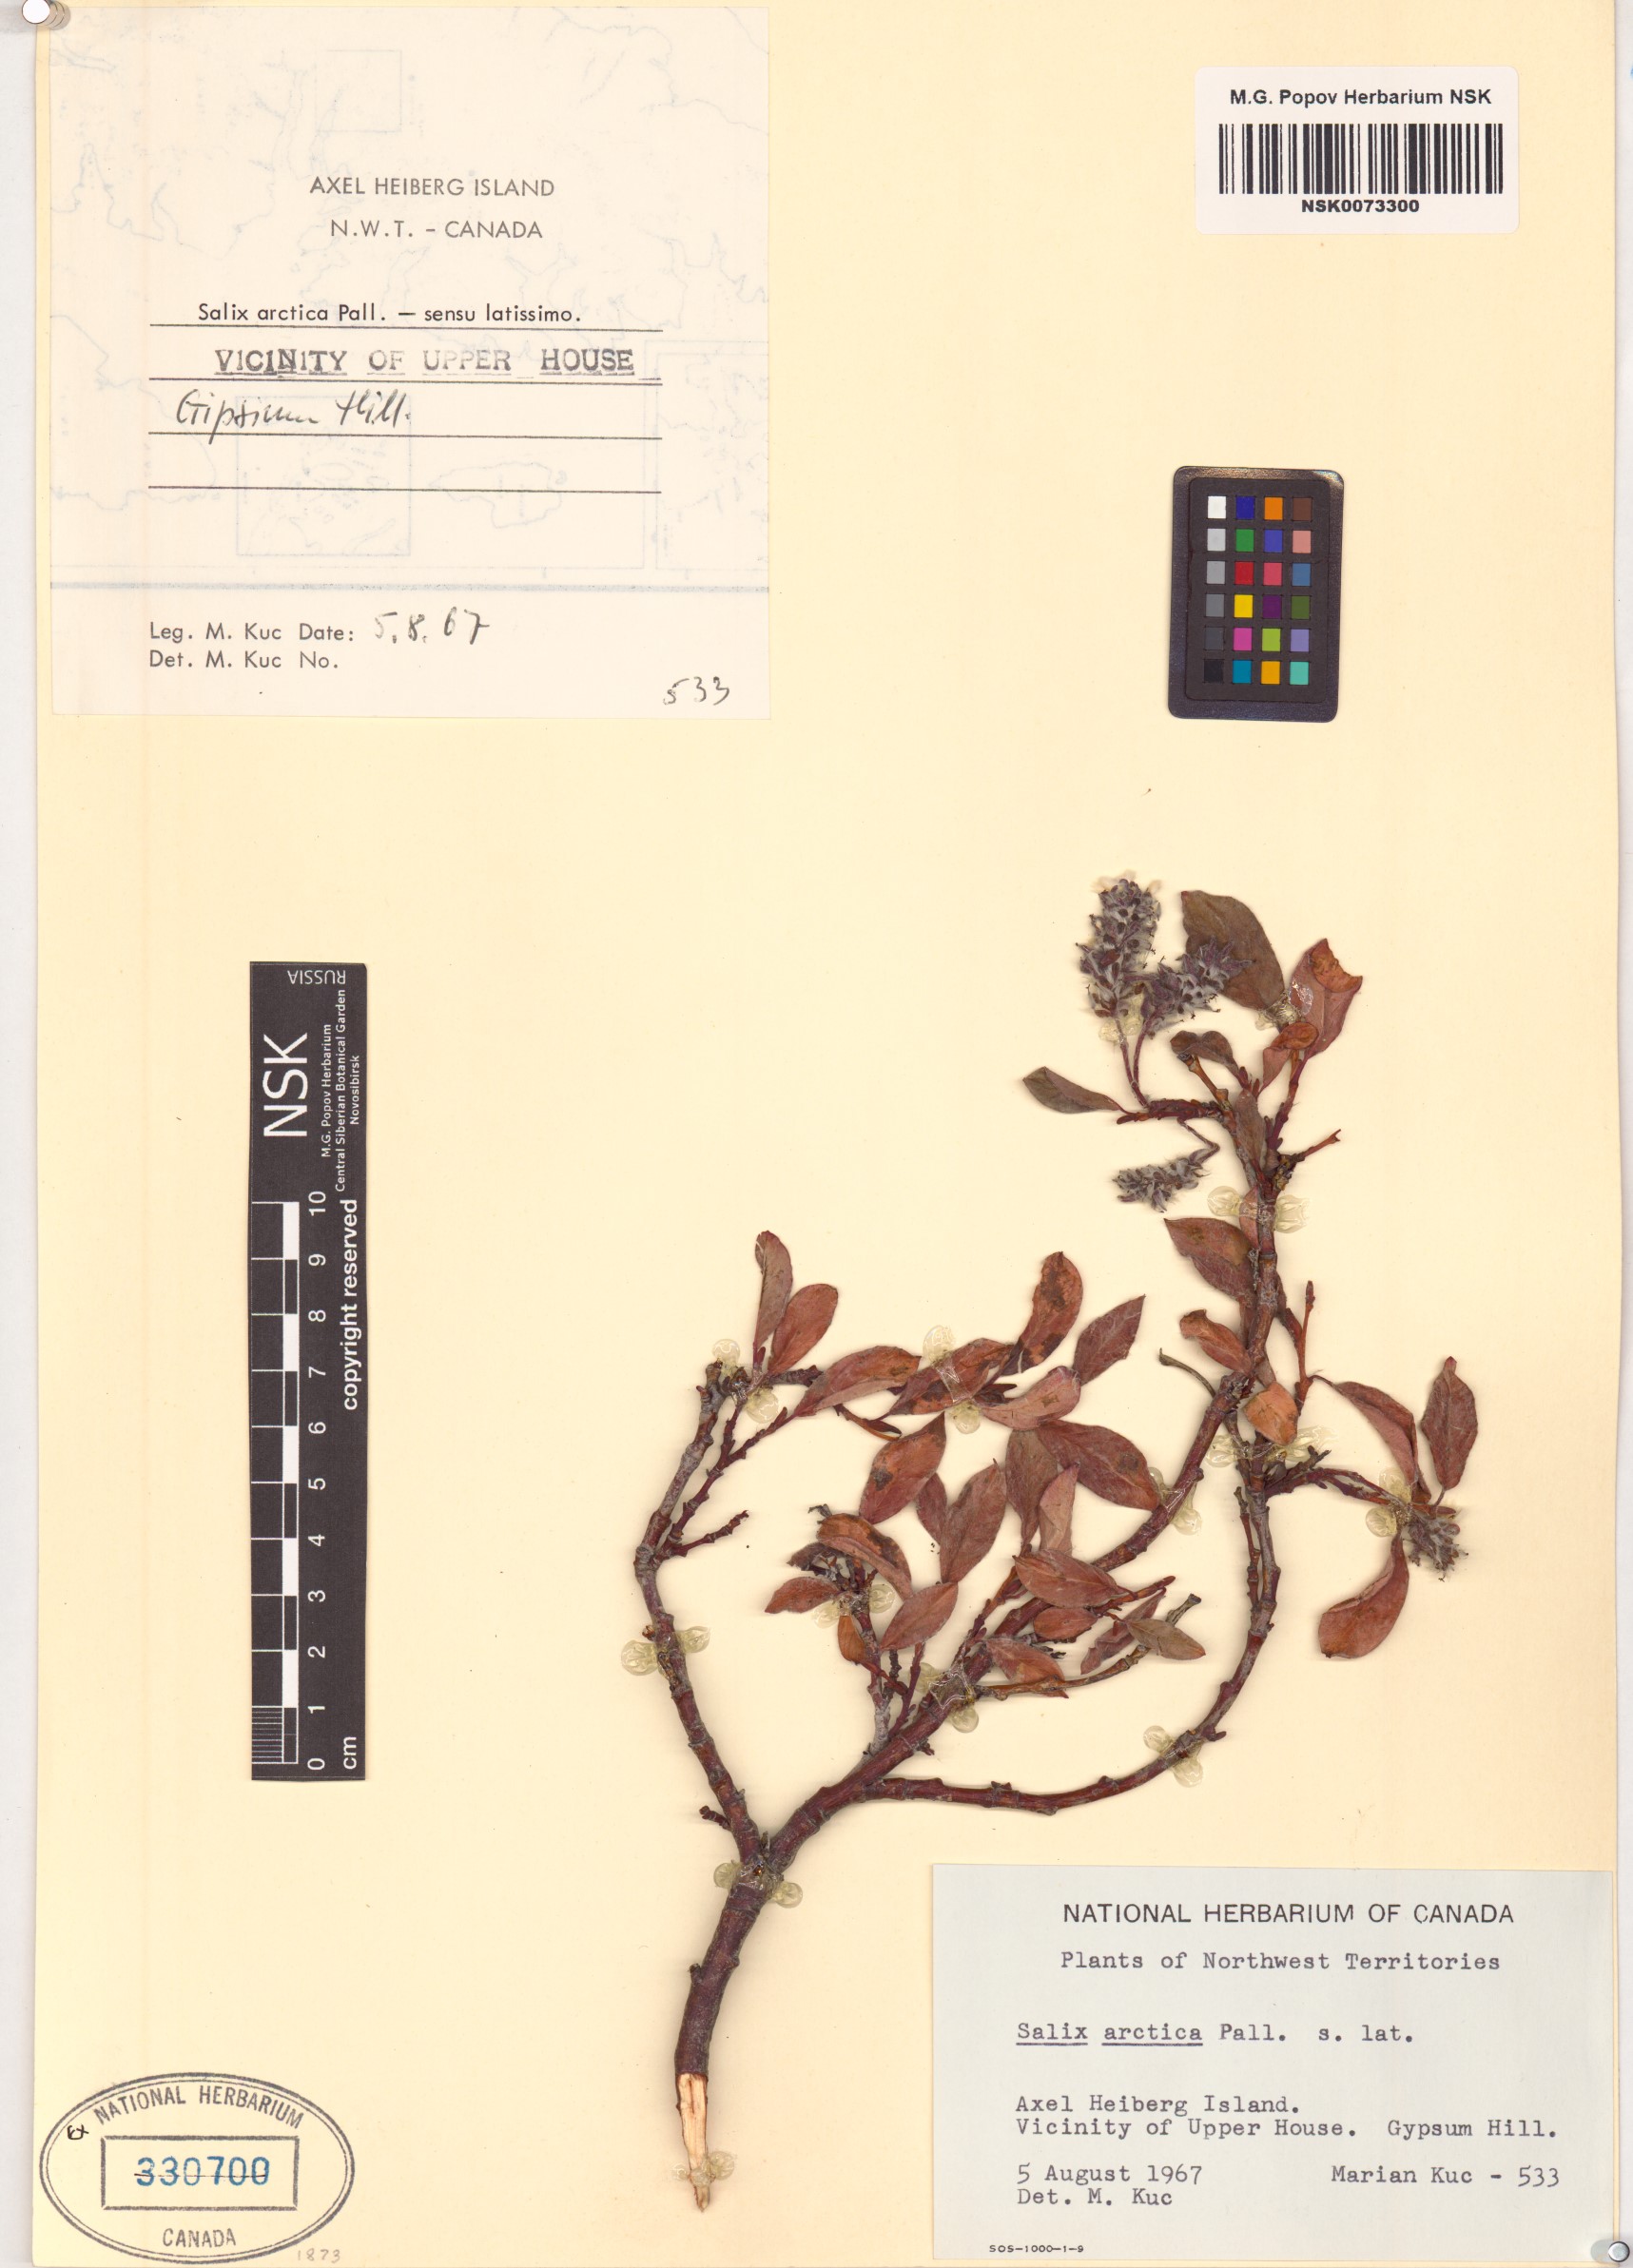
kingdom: Plantae
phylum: Tracheophyta
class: Magnoliopsida
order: Malpighiales
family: Salicaceae
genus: Salix
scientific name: Salix arctica
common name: Arctic willow
